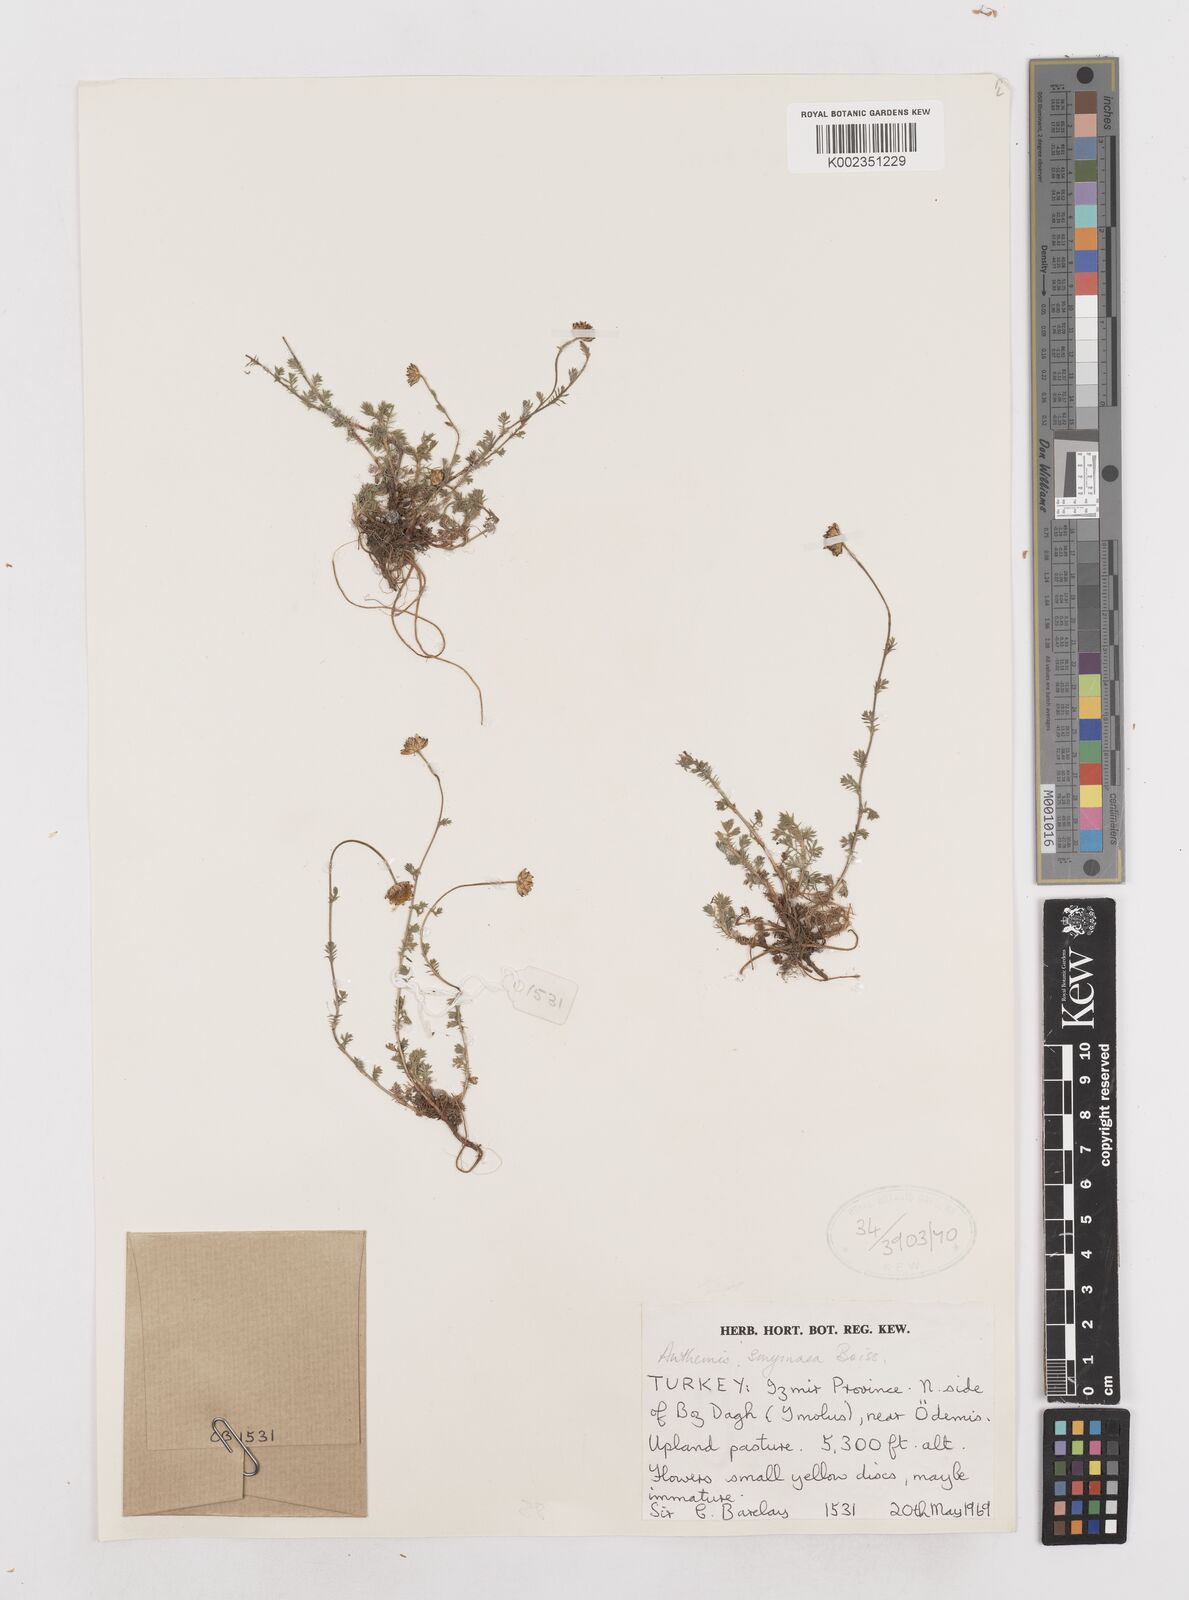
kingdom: Plantae
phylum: Tracheophyta
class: Magnoliopsida
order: Asterales
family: Asteraceae
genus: Anthemis
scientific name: Anthemis cretica
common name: Mountain dog-daisy
